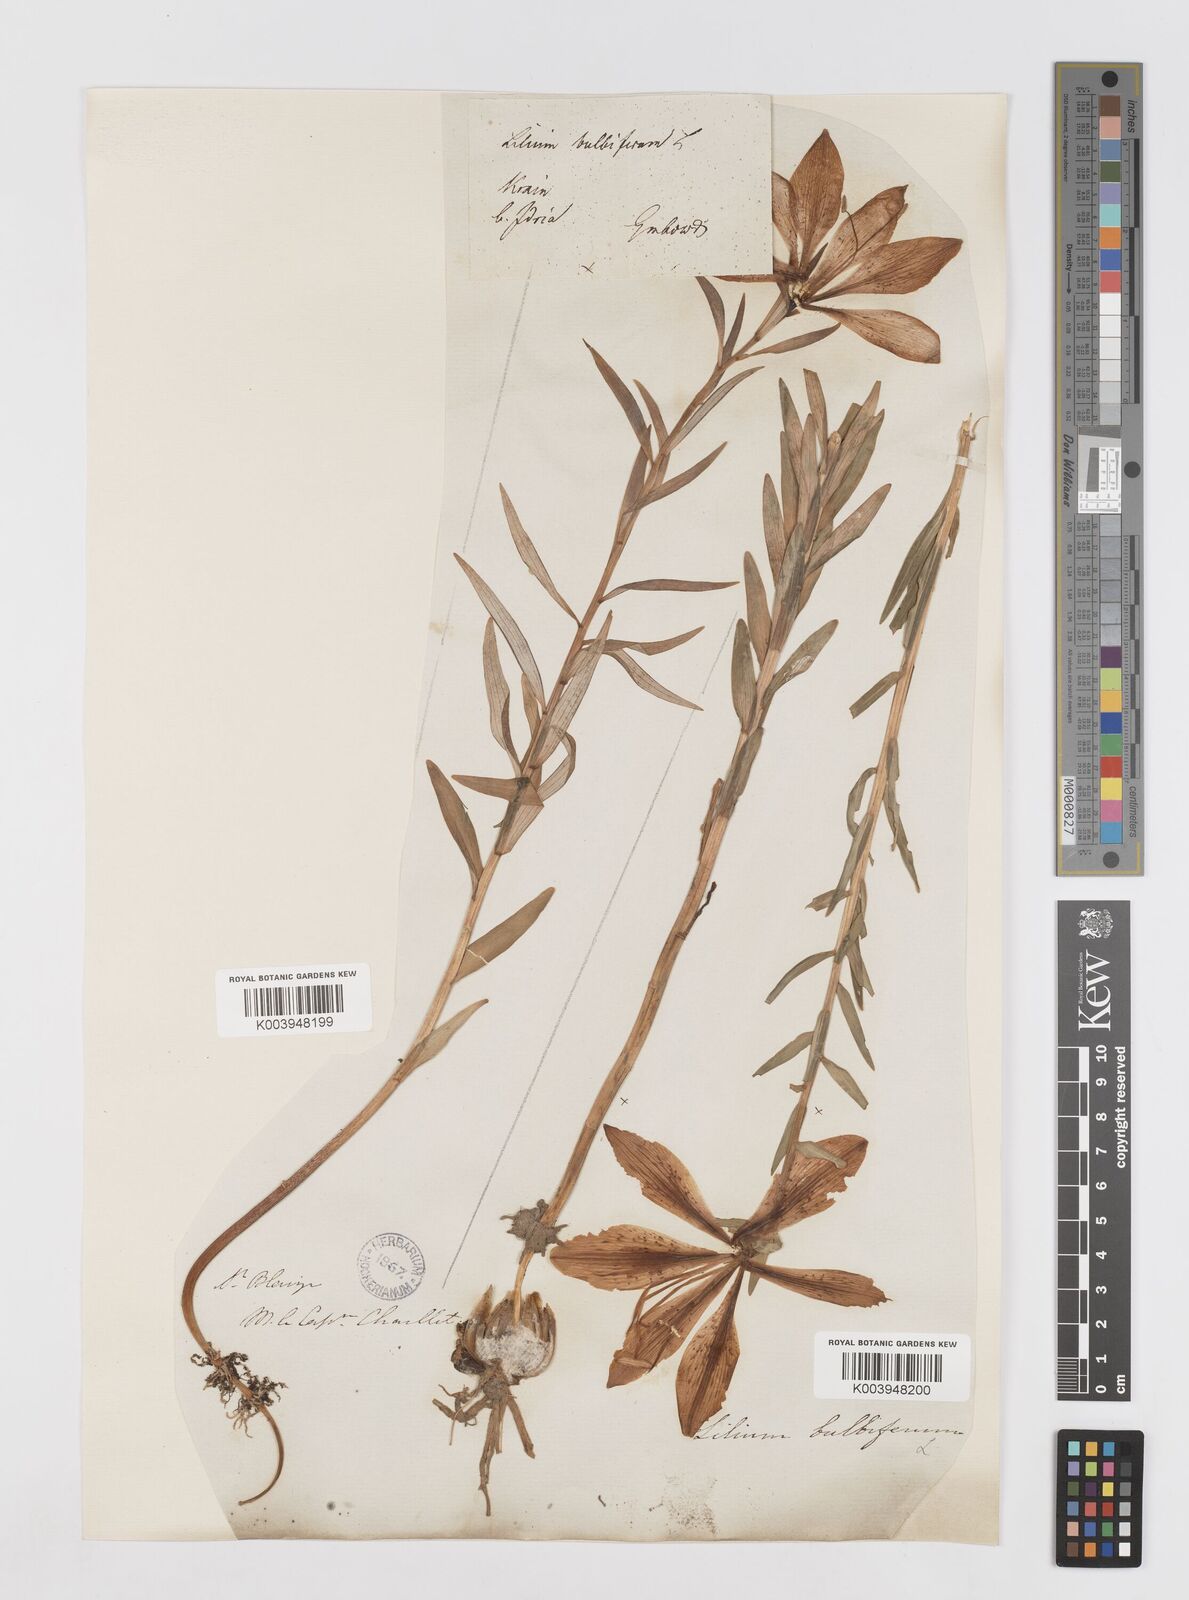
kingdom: Plantae
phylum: Tracheophyta
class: Liliopsida
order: Liliales
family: Liliaceae
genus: Lilium
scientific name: Lilium bulbiferum
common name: Orange lily
